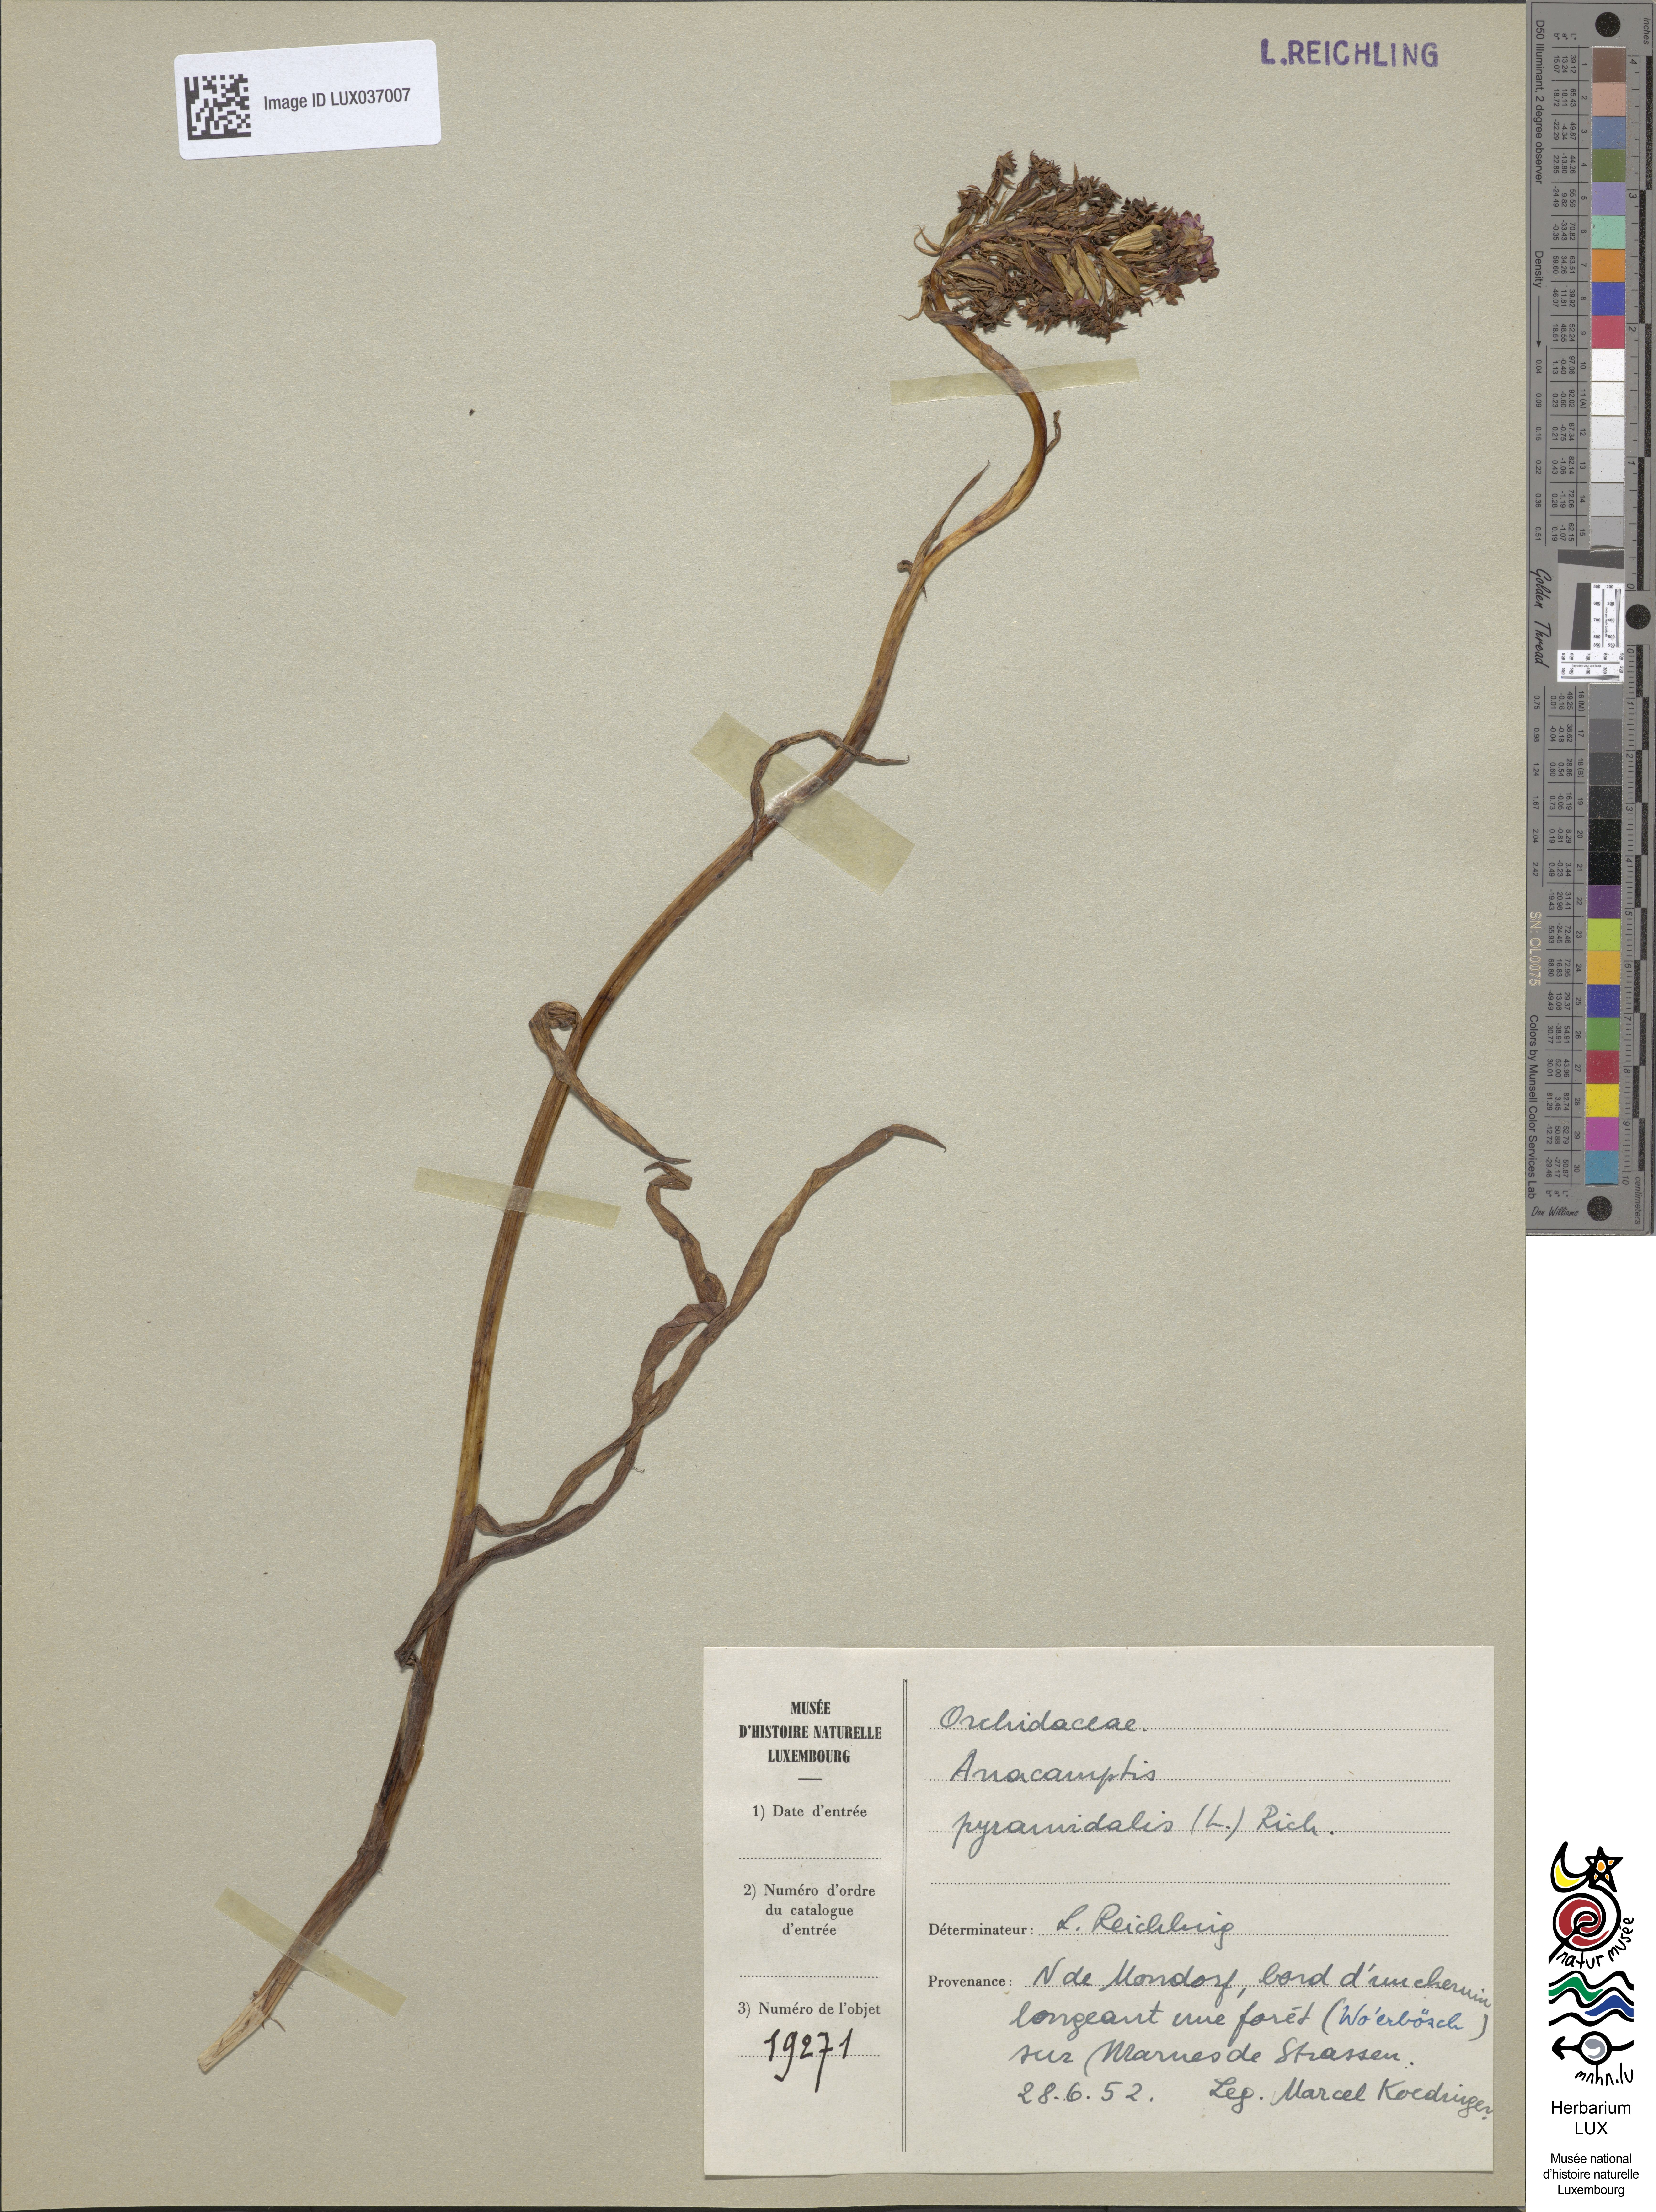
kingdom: Plantae
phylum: Tracheophyta
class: Liliopsida
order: Asparagales
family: Orchidaceae
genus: Anacamptis
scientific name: Anacamptis pyramidalis
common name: Pyramidal orchid
